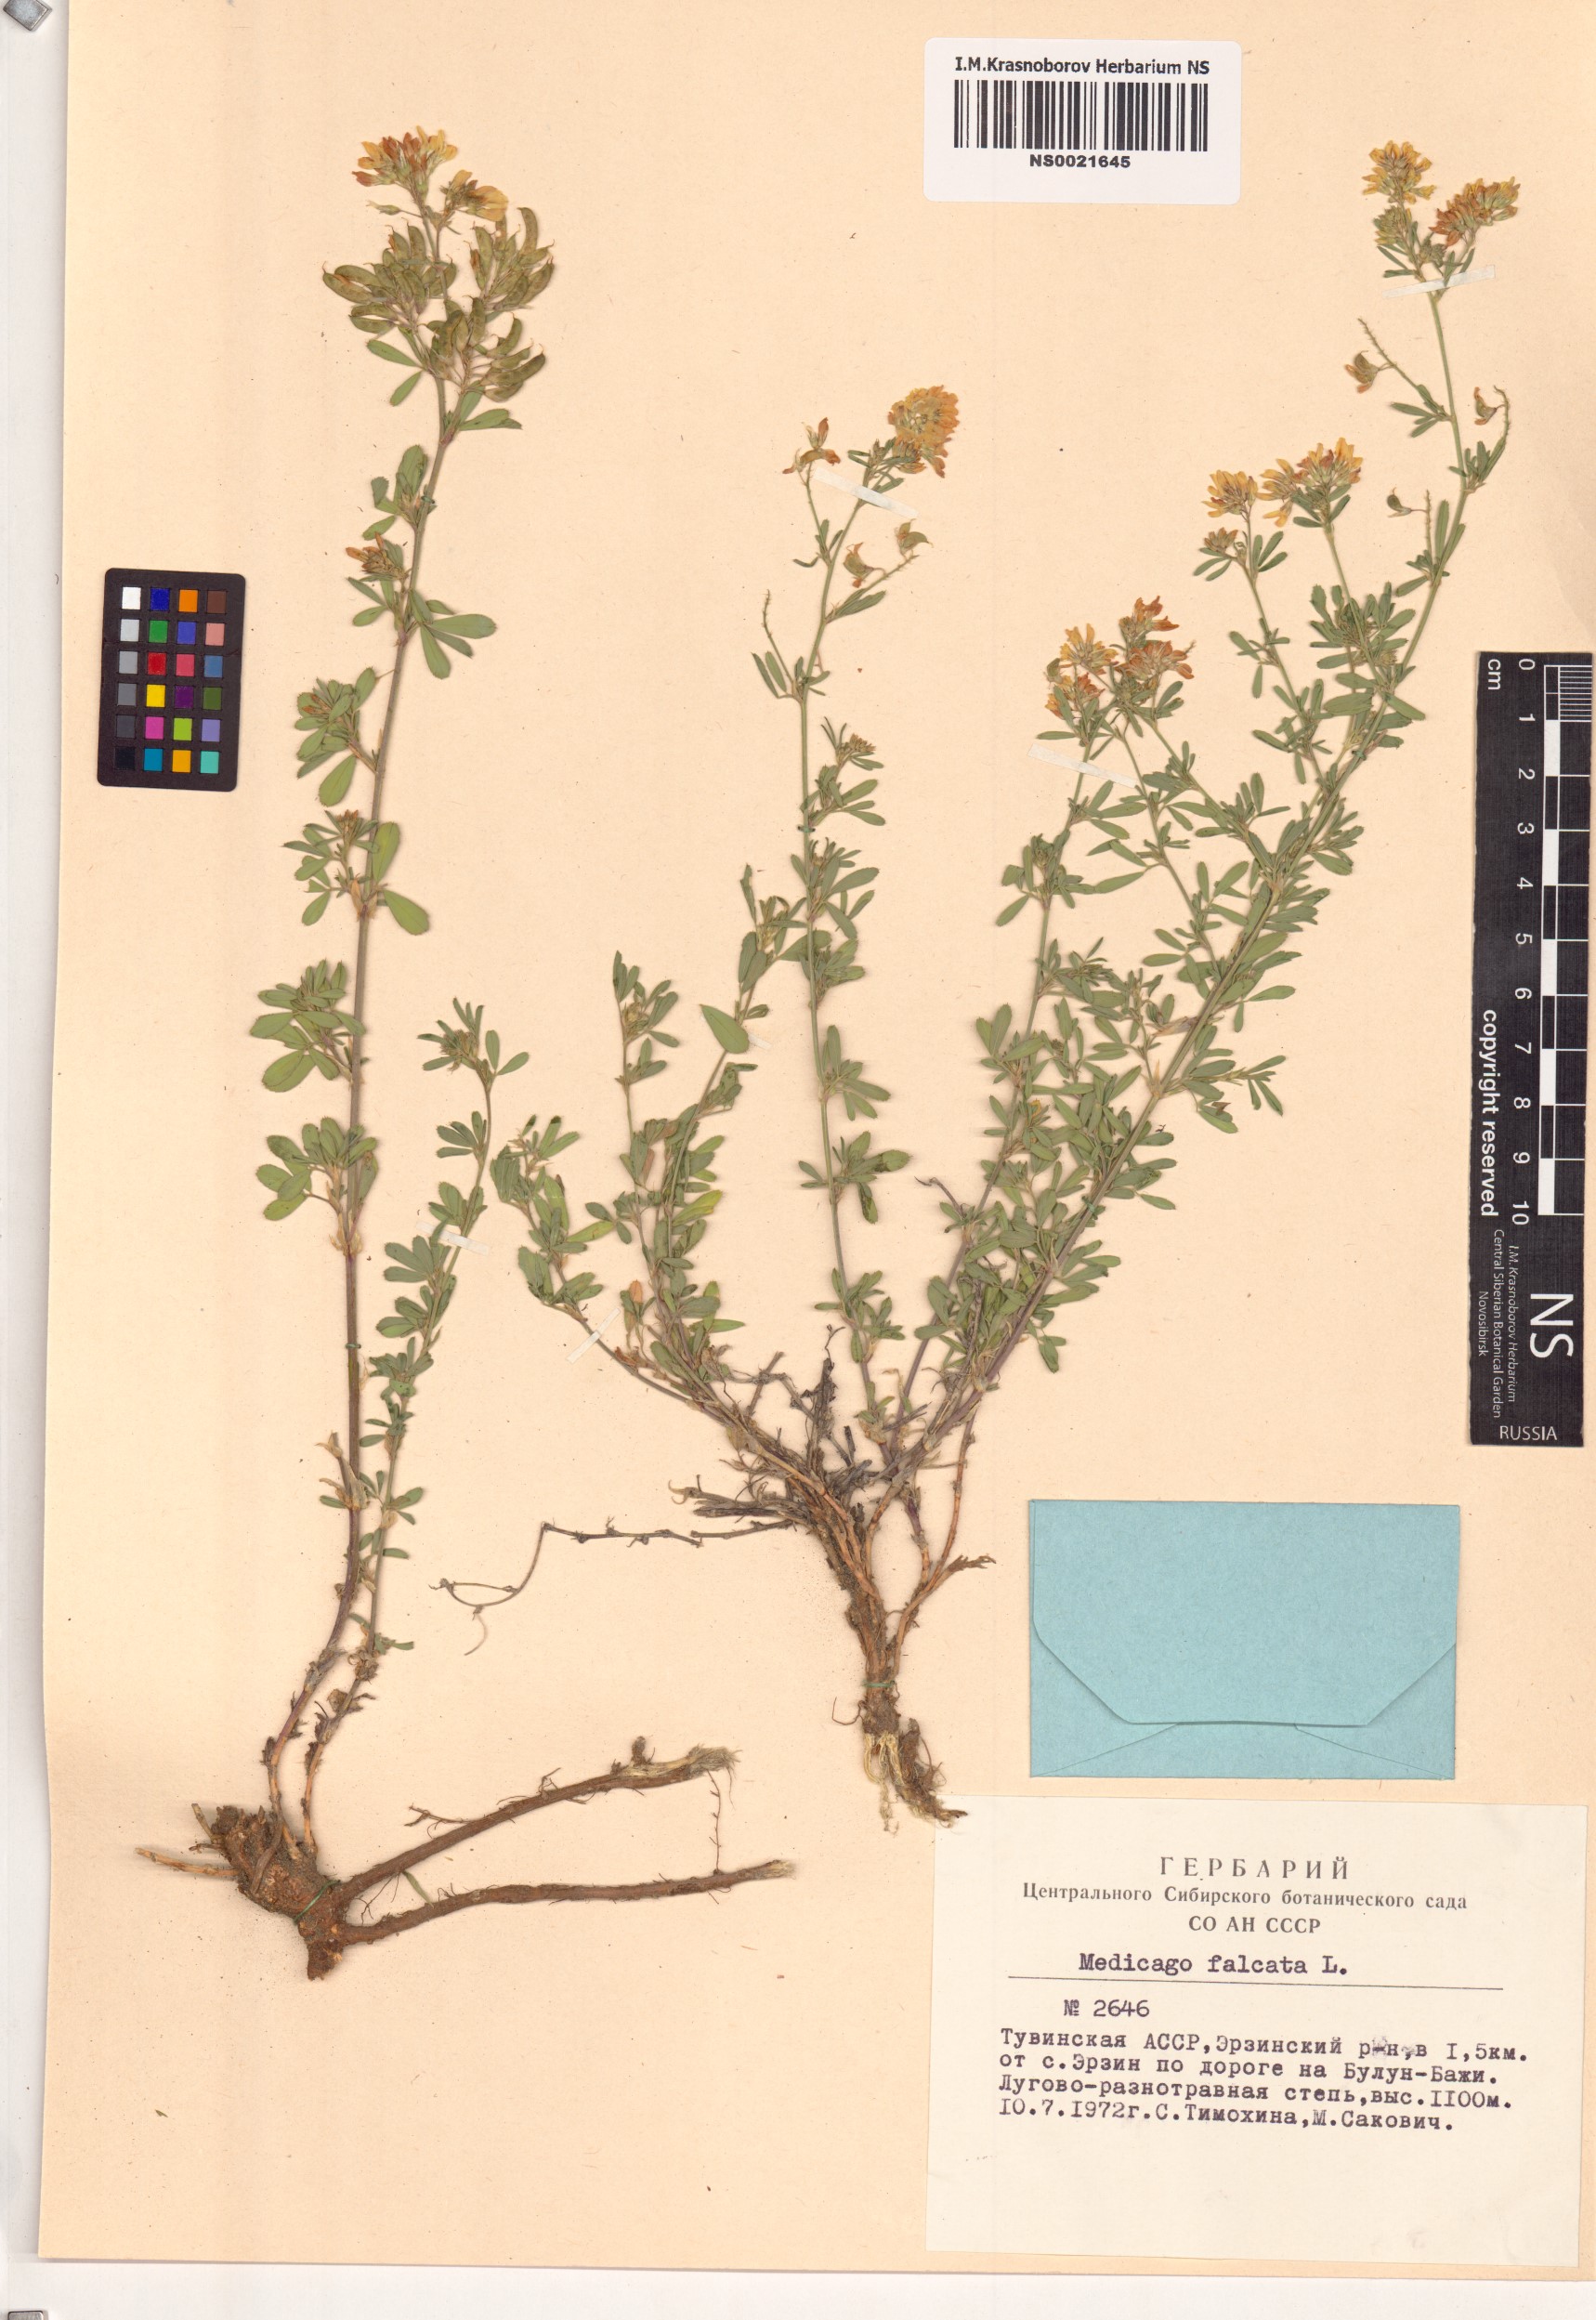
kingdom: Plantae
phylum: Tracheophyta
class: Magnoliopsida
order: Fabales
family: Fabaceae
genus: Medicago
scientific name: Medicago falcata
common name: Sickle medick
